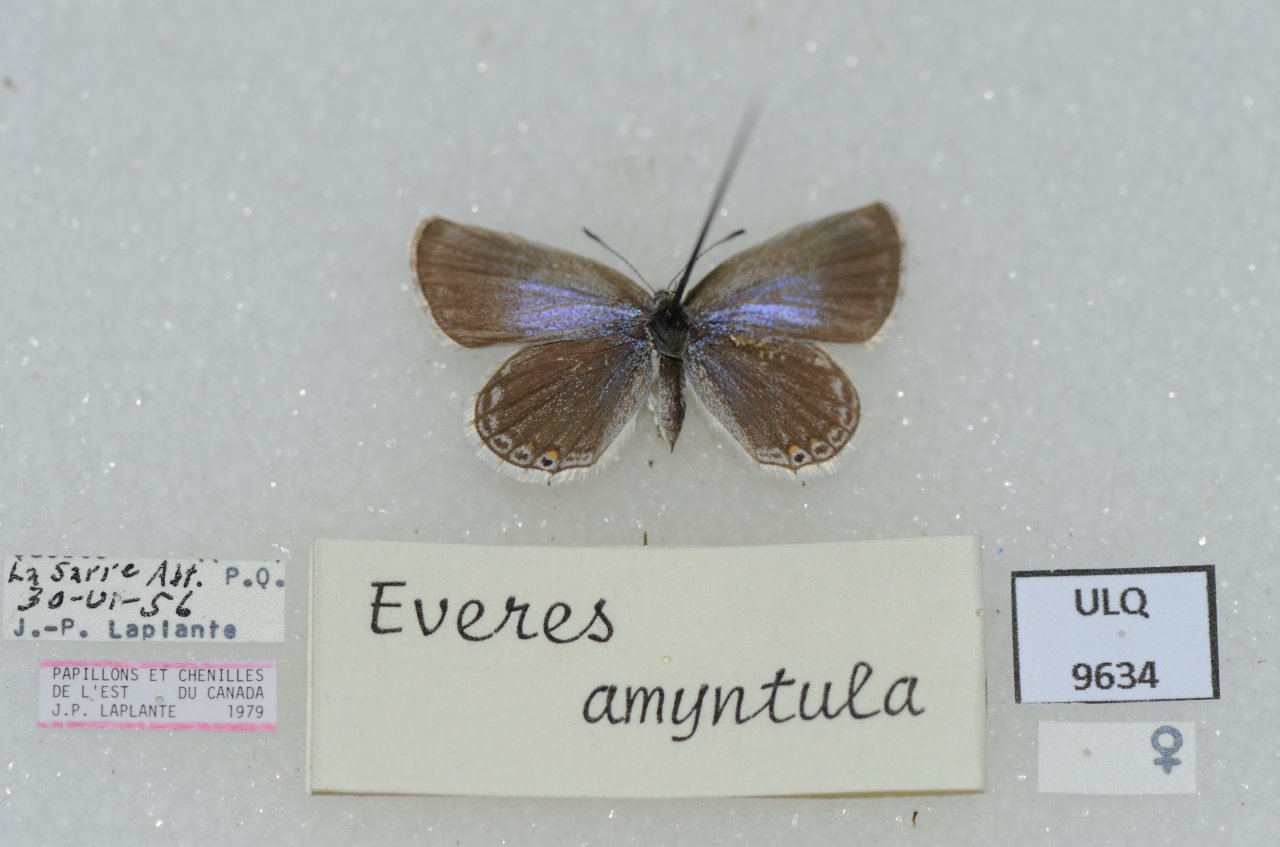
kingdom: Animalia
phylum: Arthropoda
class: Insecta
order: Lepidoptera
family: Lycaenidae
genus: Elkalyce
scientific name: Elkalyce amyntula
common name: Western Tailed-Blue
